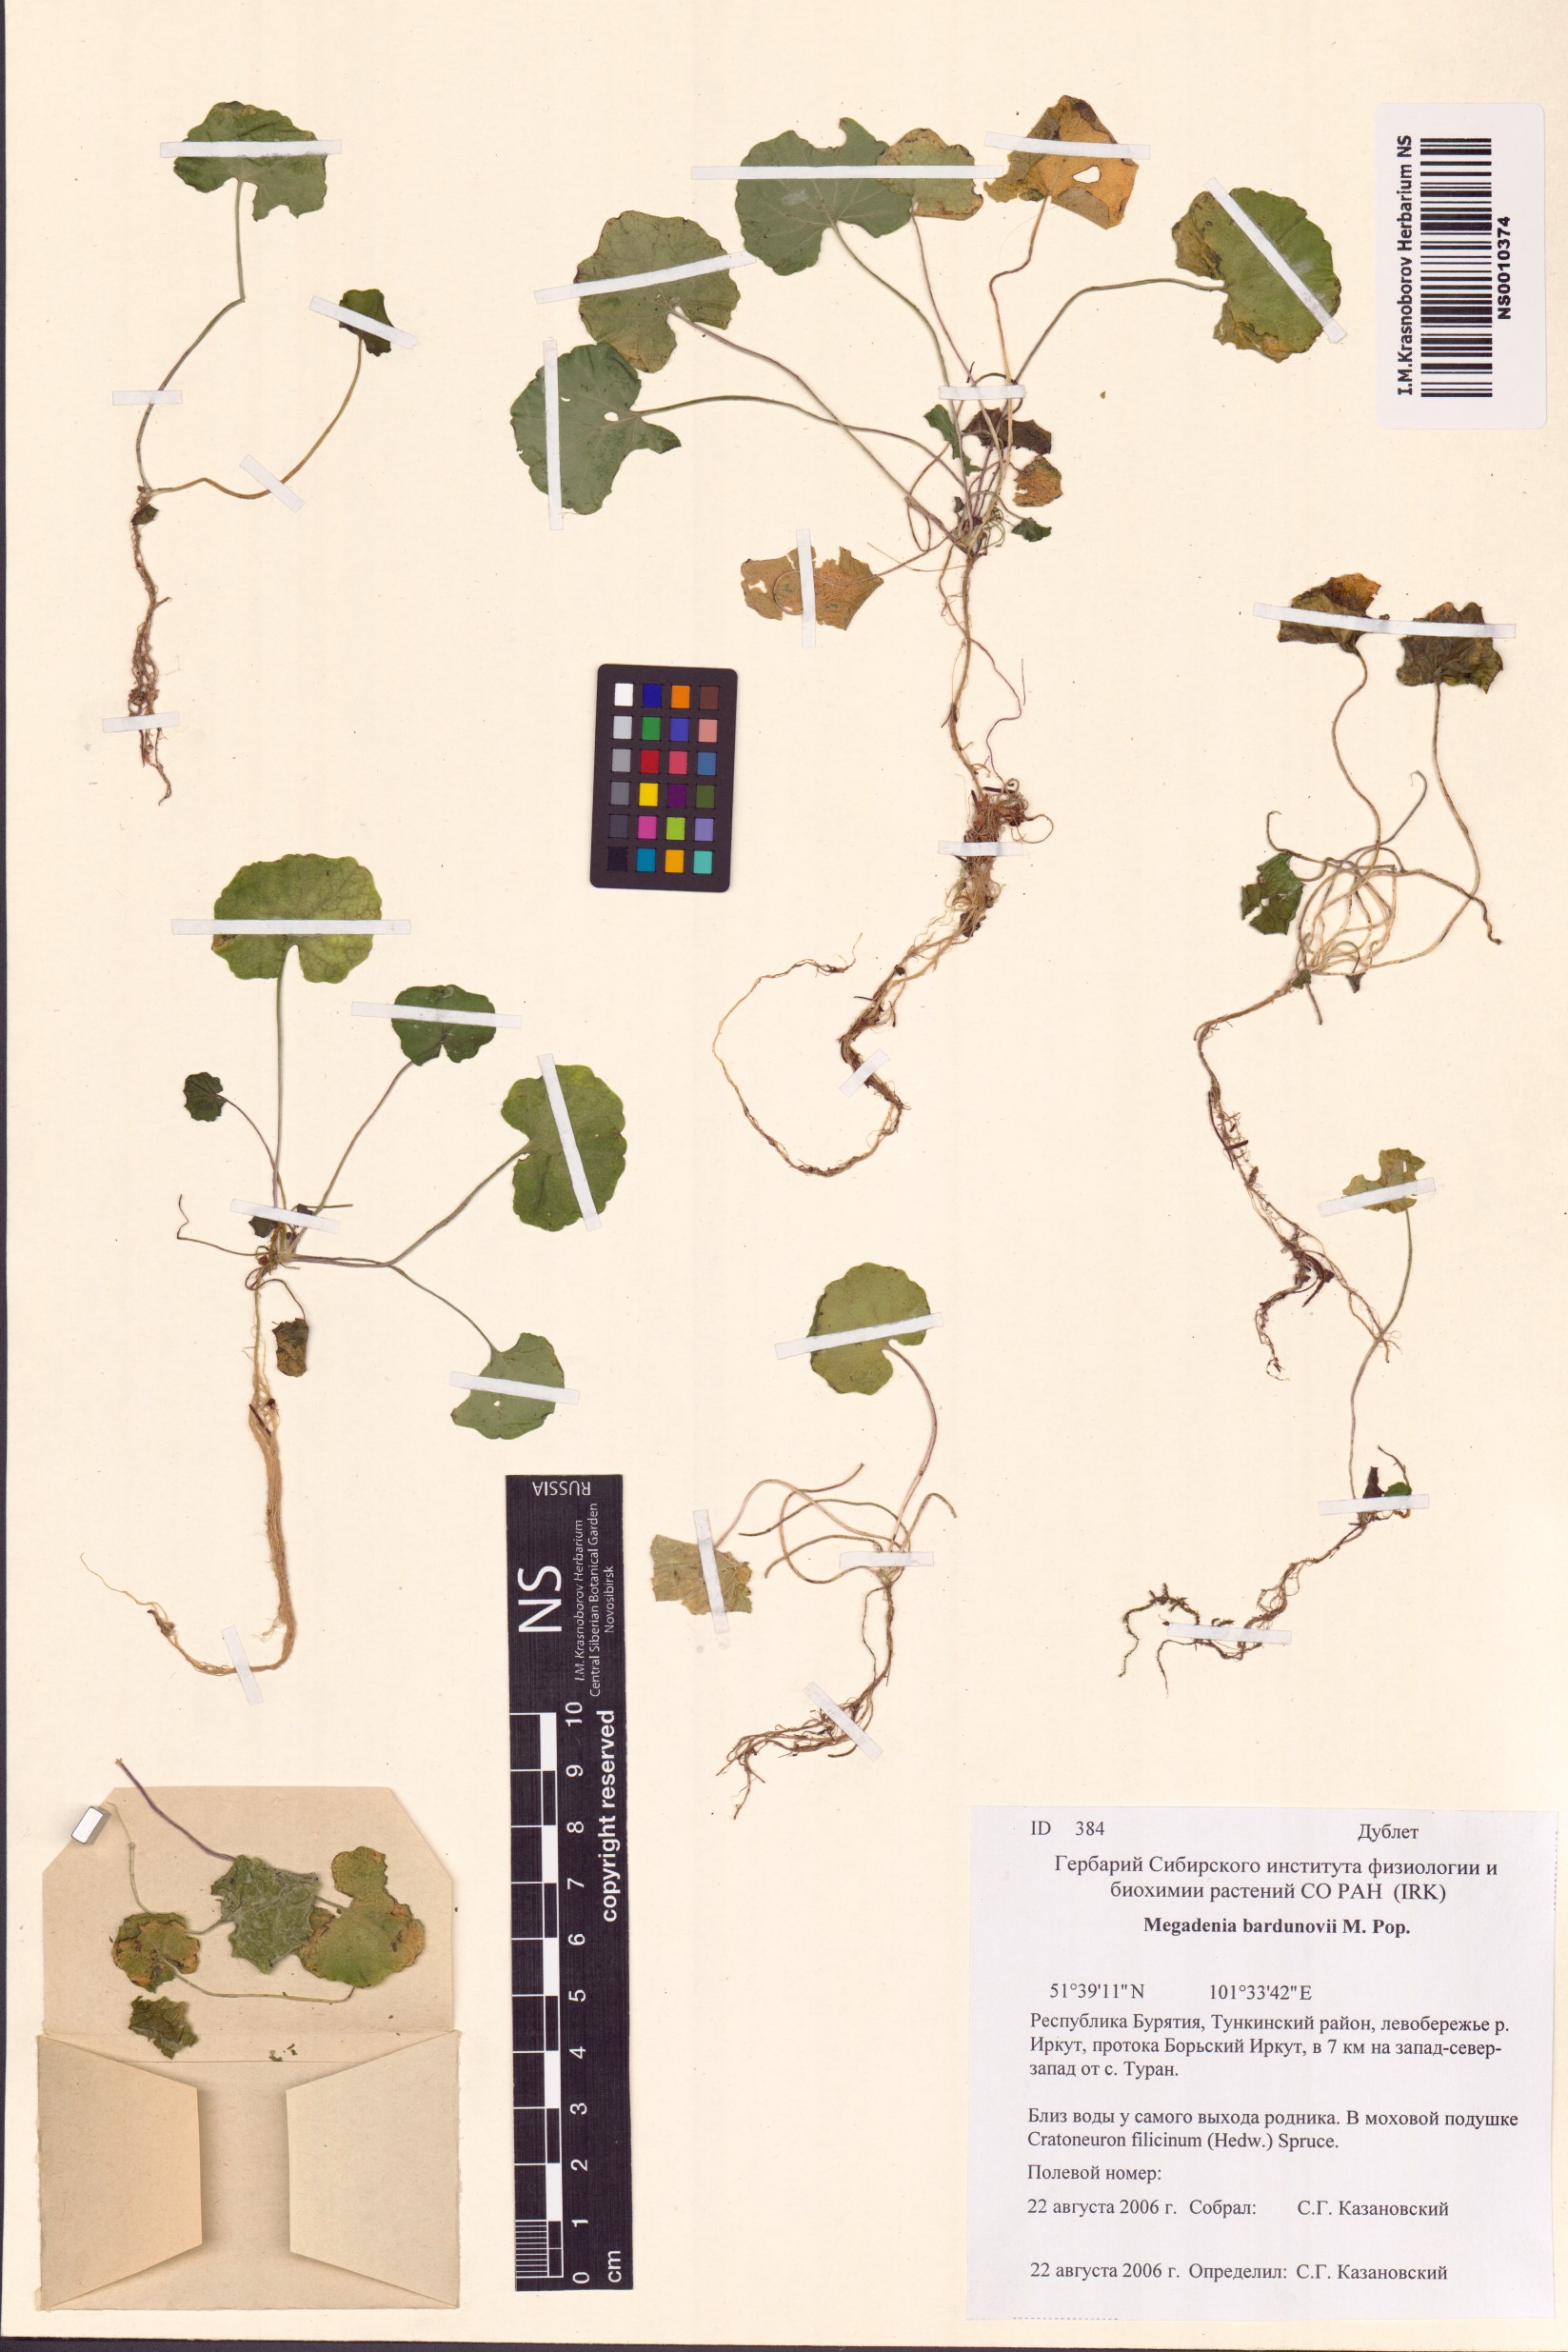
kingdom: Plantae
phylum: Tracheophyta
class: Magnoliopsida
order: Brassicales
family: Brassicaceae
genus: Megadenia
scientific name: Megadenia pygmaea
